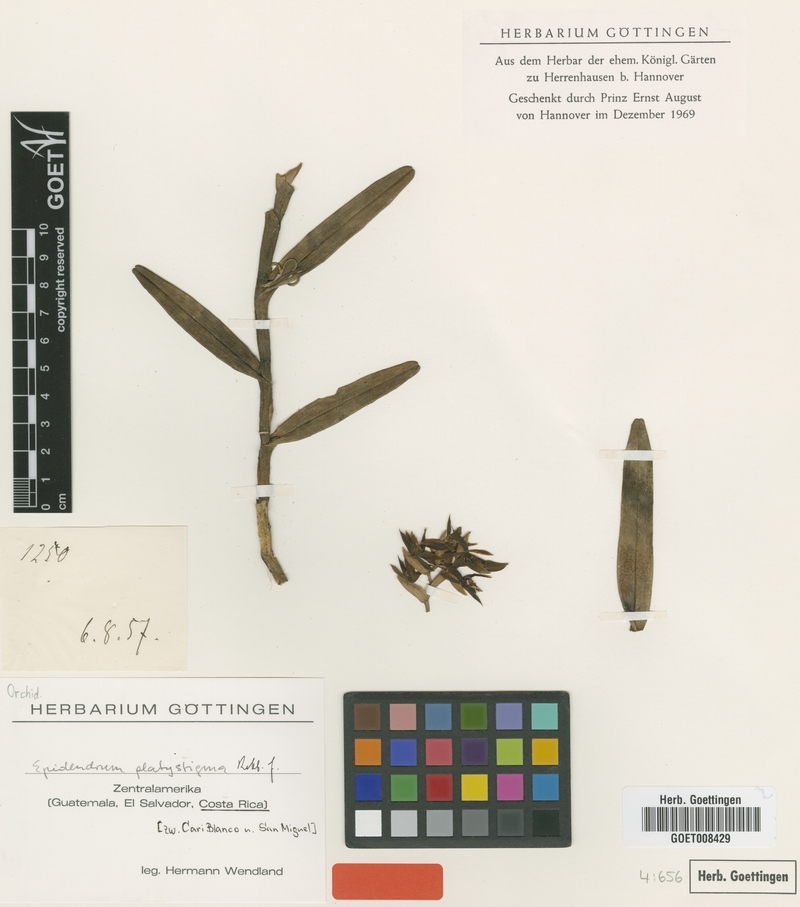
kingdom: Plantae
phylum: Tracheophyta
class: Liliopsida
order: Asparagales
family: Orchidaceae
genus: Epidendrum
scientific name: Epidendrum platystigma
